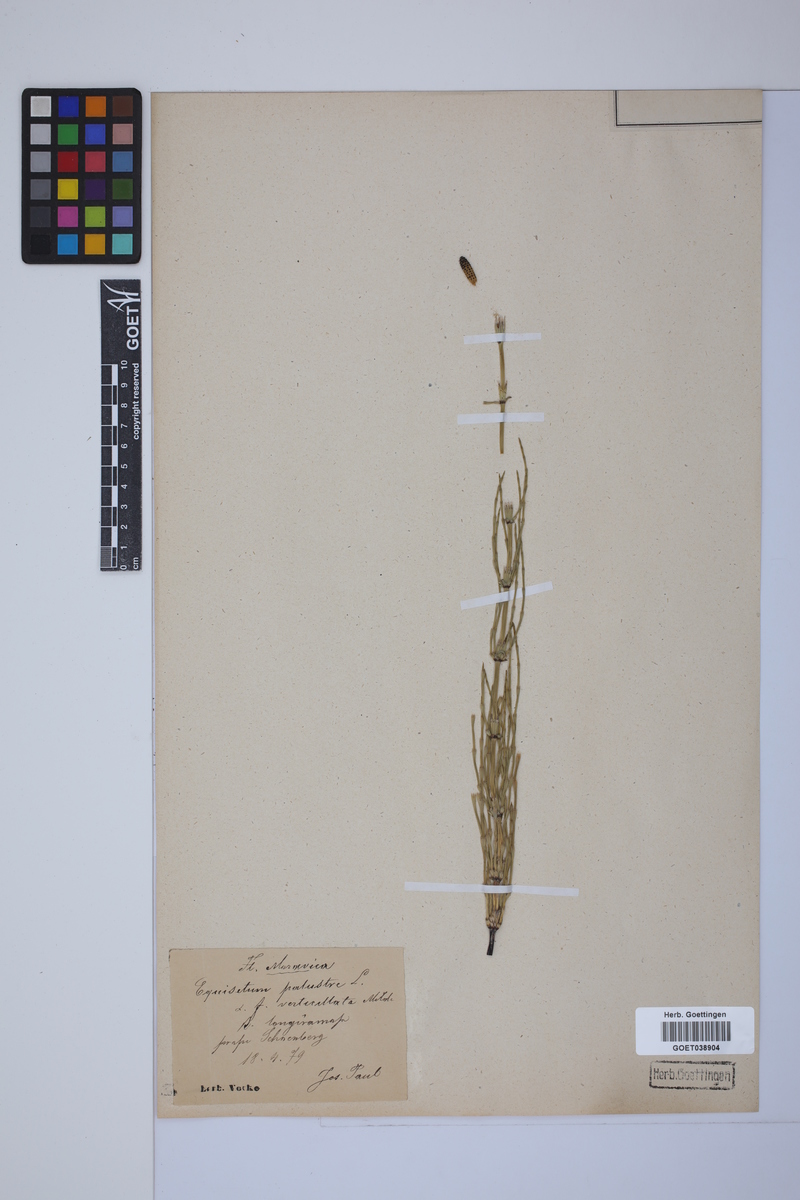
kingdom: Plantae
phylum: Tracheophyta
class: Polypodiopsida
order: Equisetales
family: Equisetaceae
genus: Equisetum
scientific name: Equisetum palustre
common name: Marsh horsetail
